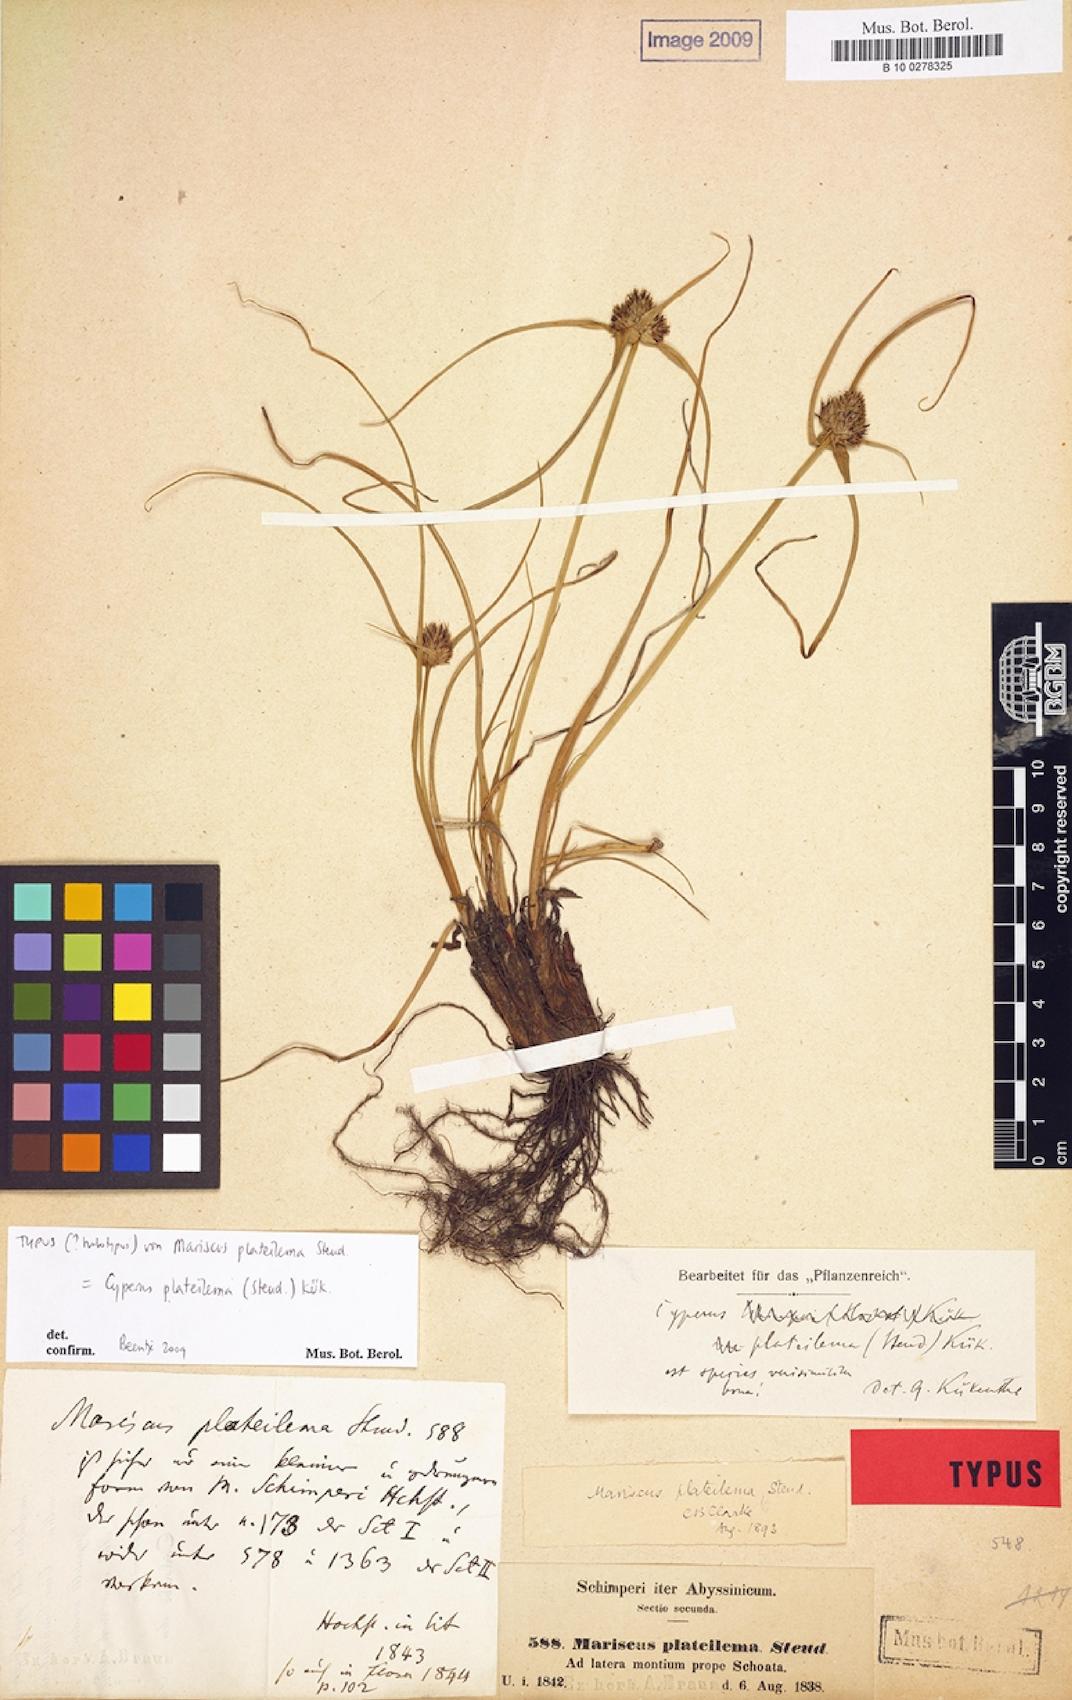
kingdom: Plantae
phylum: Tracheophyta
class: Liliopsida
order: Poales
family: Cyperaceae
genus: Cyperus
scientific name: Cyperus plateilema
